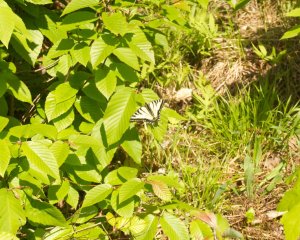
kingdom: Animalia
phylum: Arthropoda
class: Insecta
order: Lepidoptera
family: Papilionidae
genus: Pterourus
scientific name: Pterourus canadensis
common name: Canadian Tiger Swallowtail
